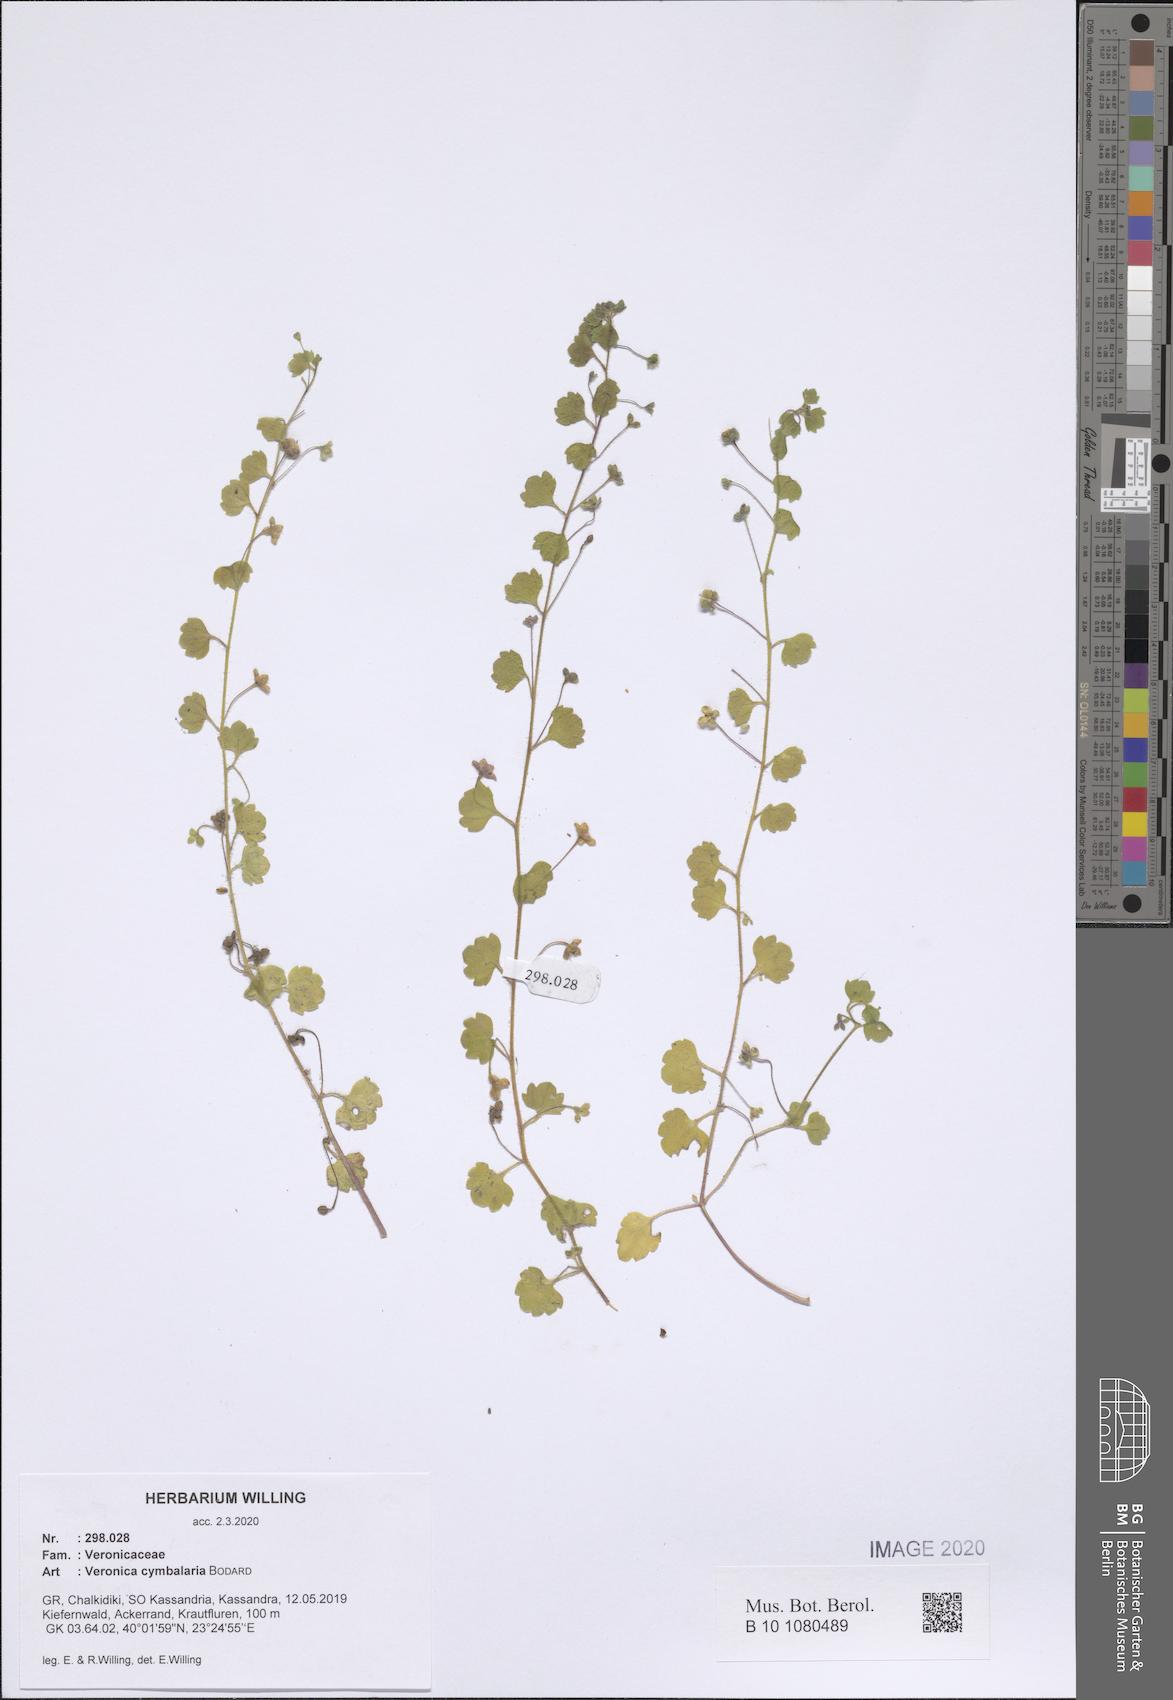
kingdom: Plantae
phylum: Tracheophyta
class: Magnoliopsida
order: Lamiales
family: Plantaginaceae
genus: Veronica
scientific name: Veronica cymbalaria
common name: Pale speedwell
